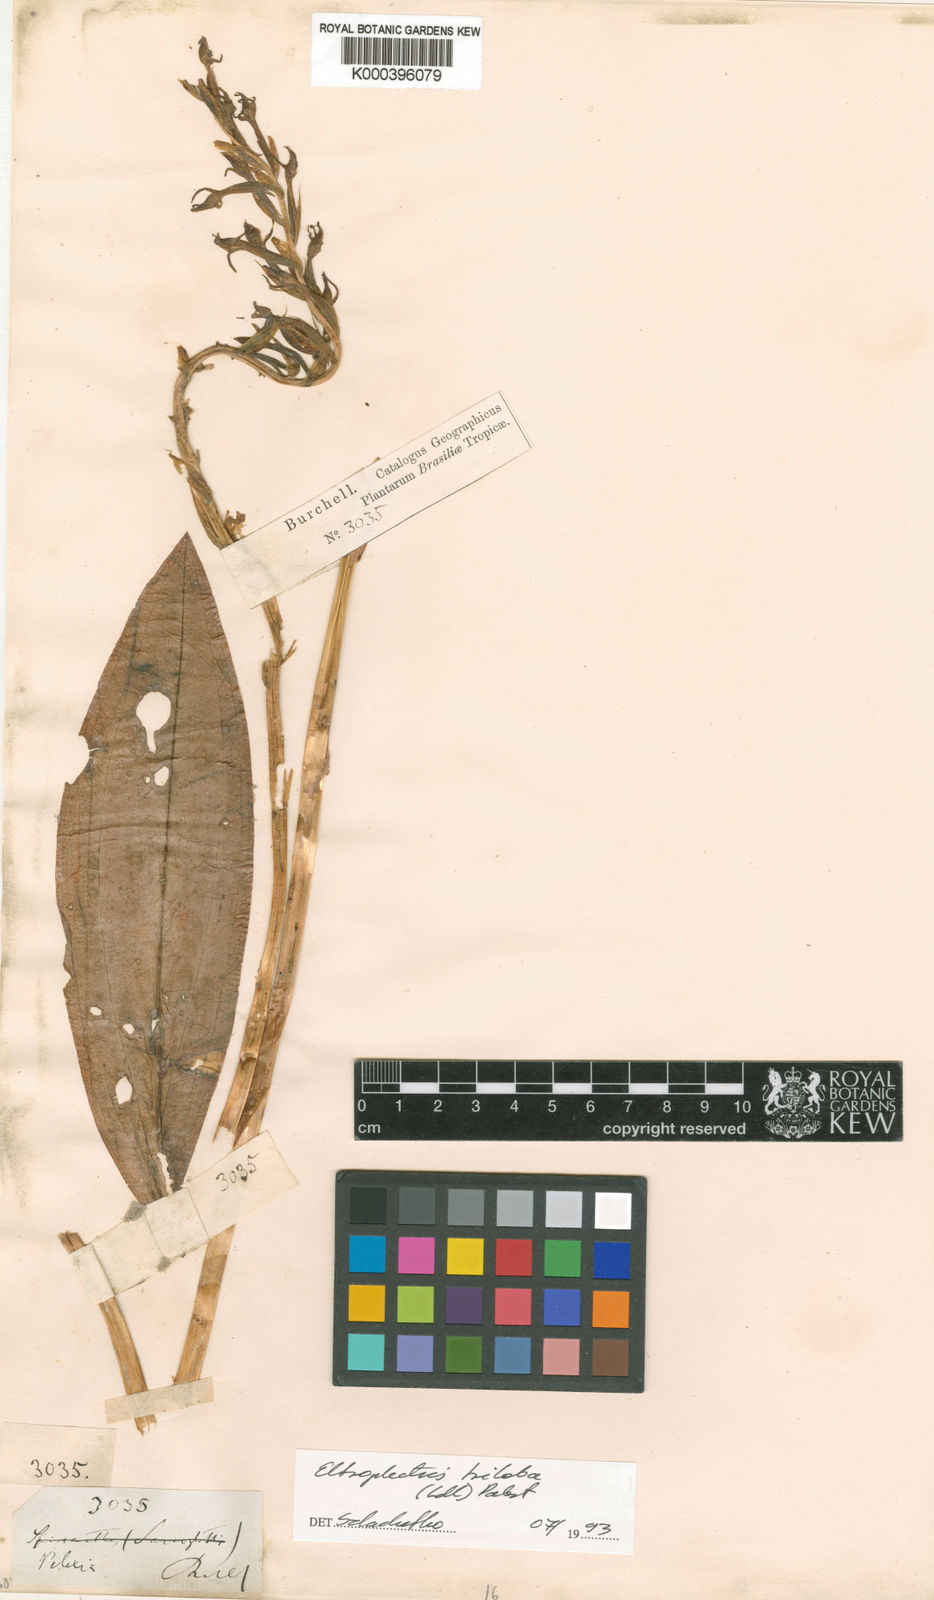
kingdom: Plantae
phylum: Tracheophyta
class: Liliopsida
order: Asparagales
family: Orchidaceae
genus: Eltroplectris
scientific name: Eltroplectris triloba
